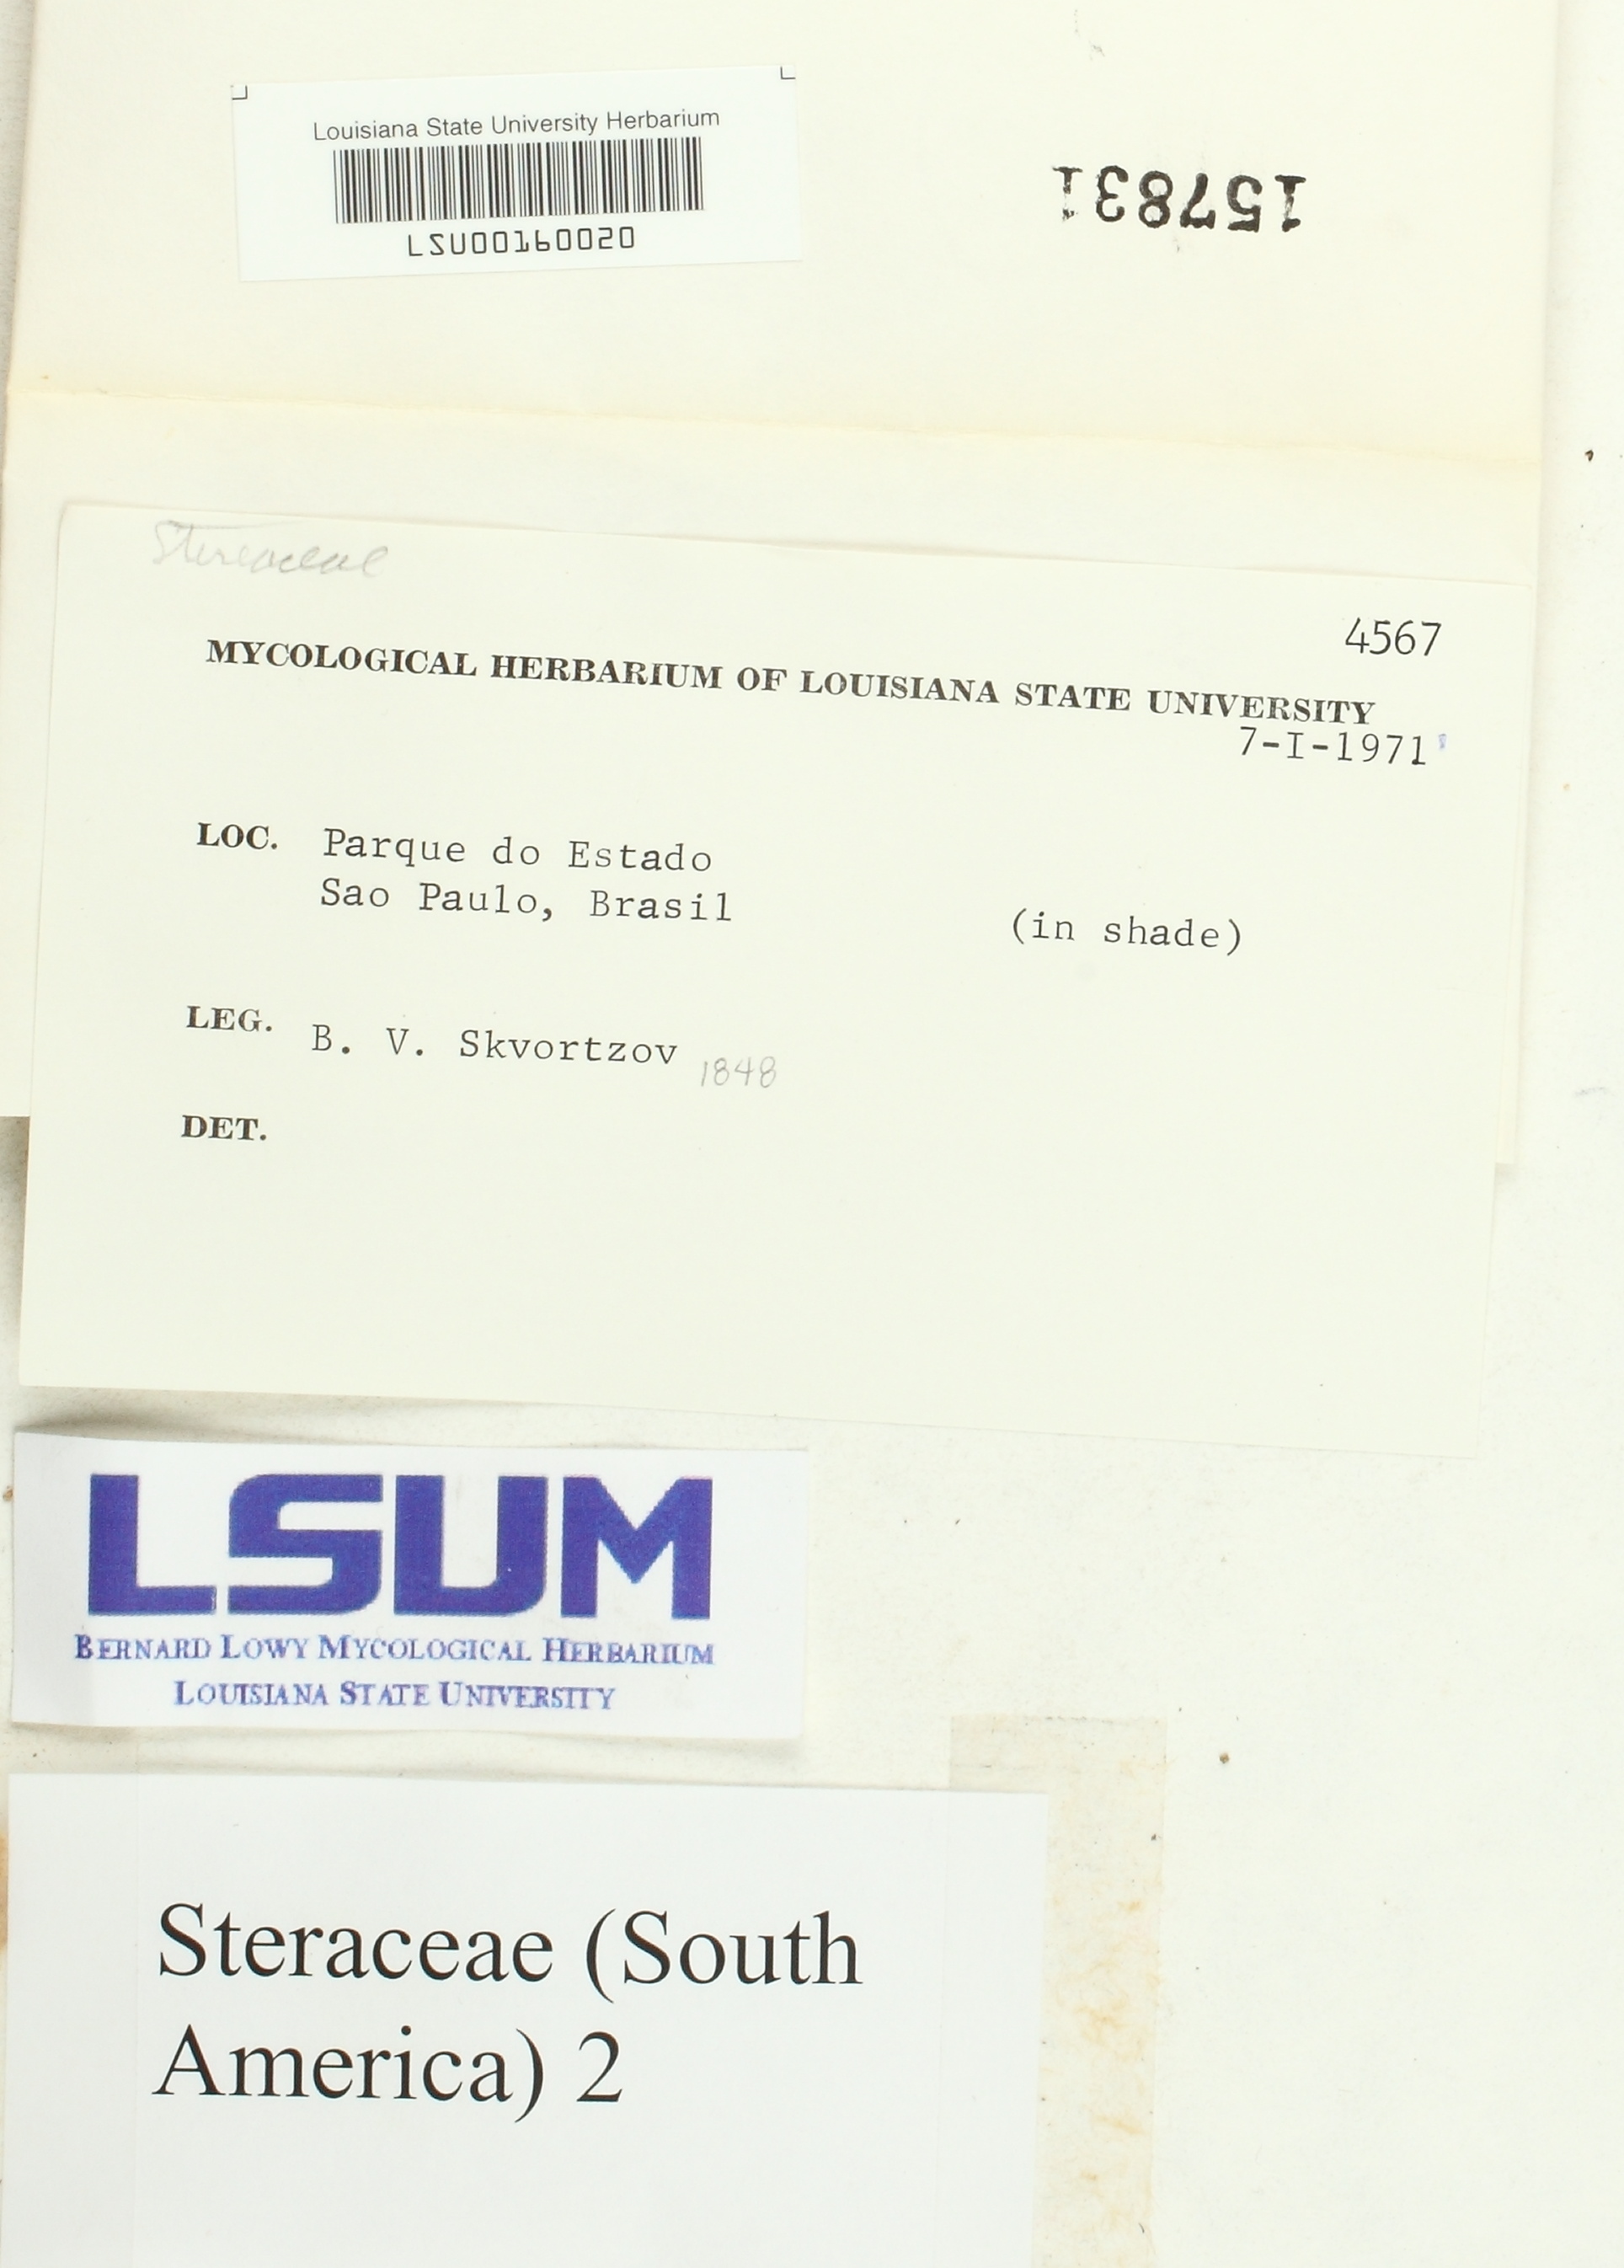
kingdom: Fungi
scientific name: Fungi
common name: Fungi
